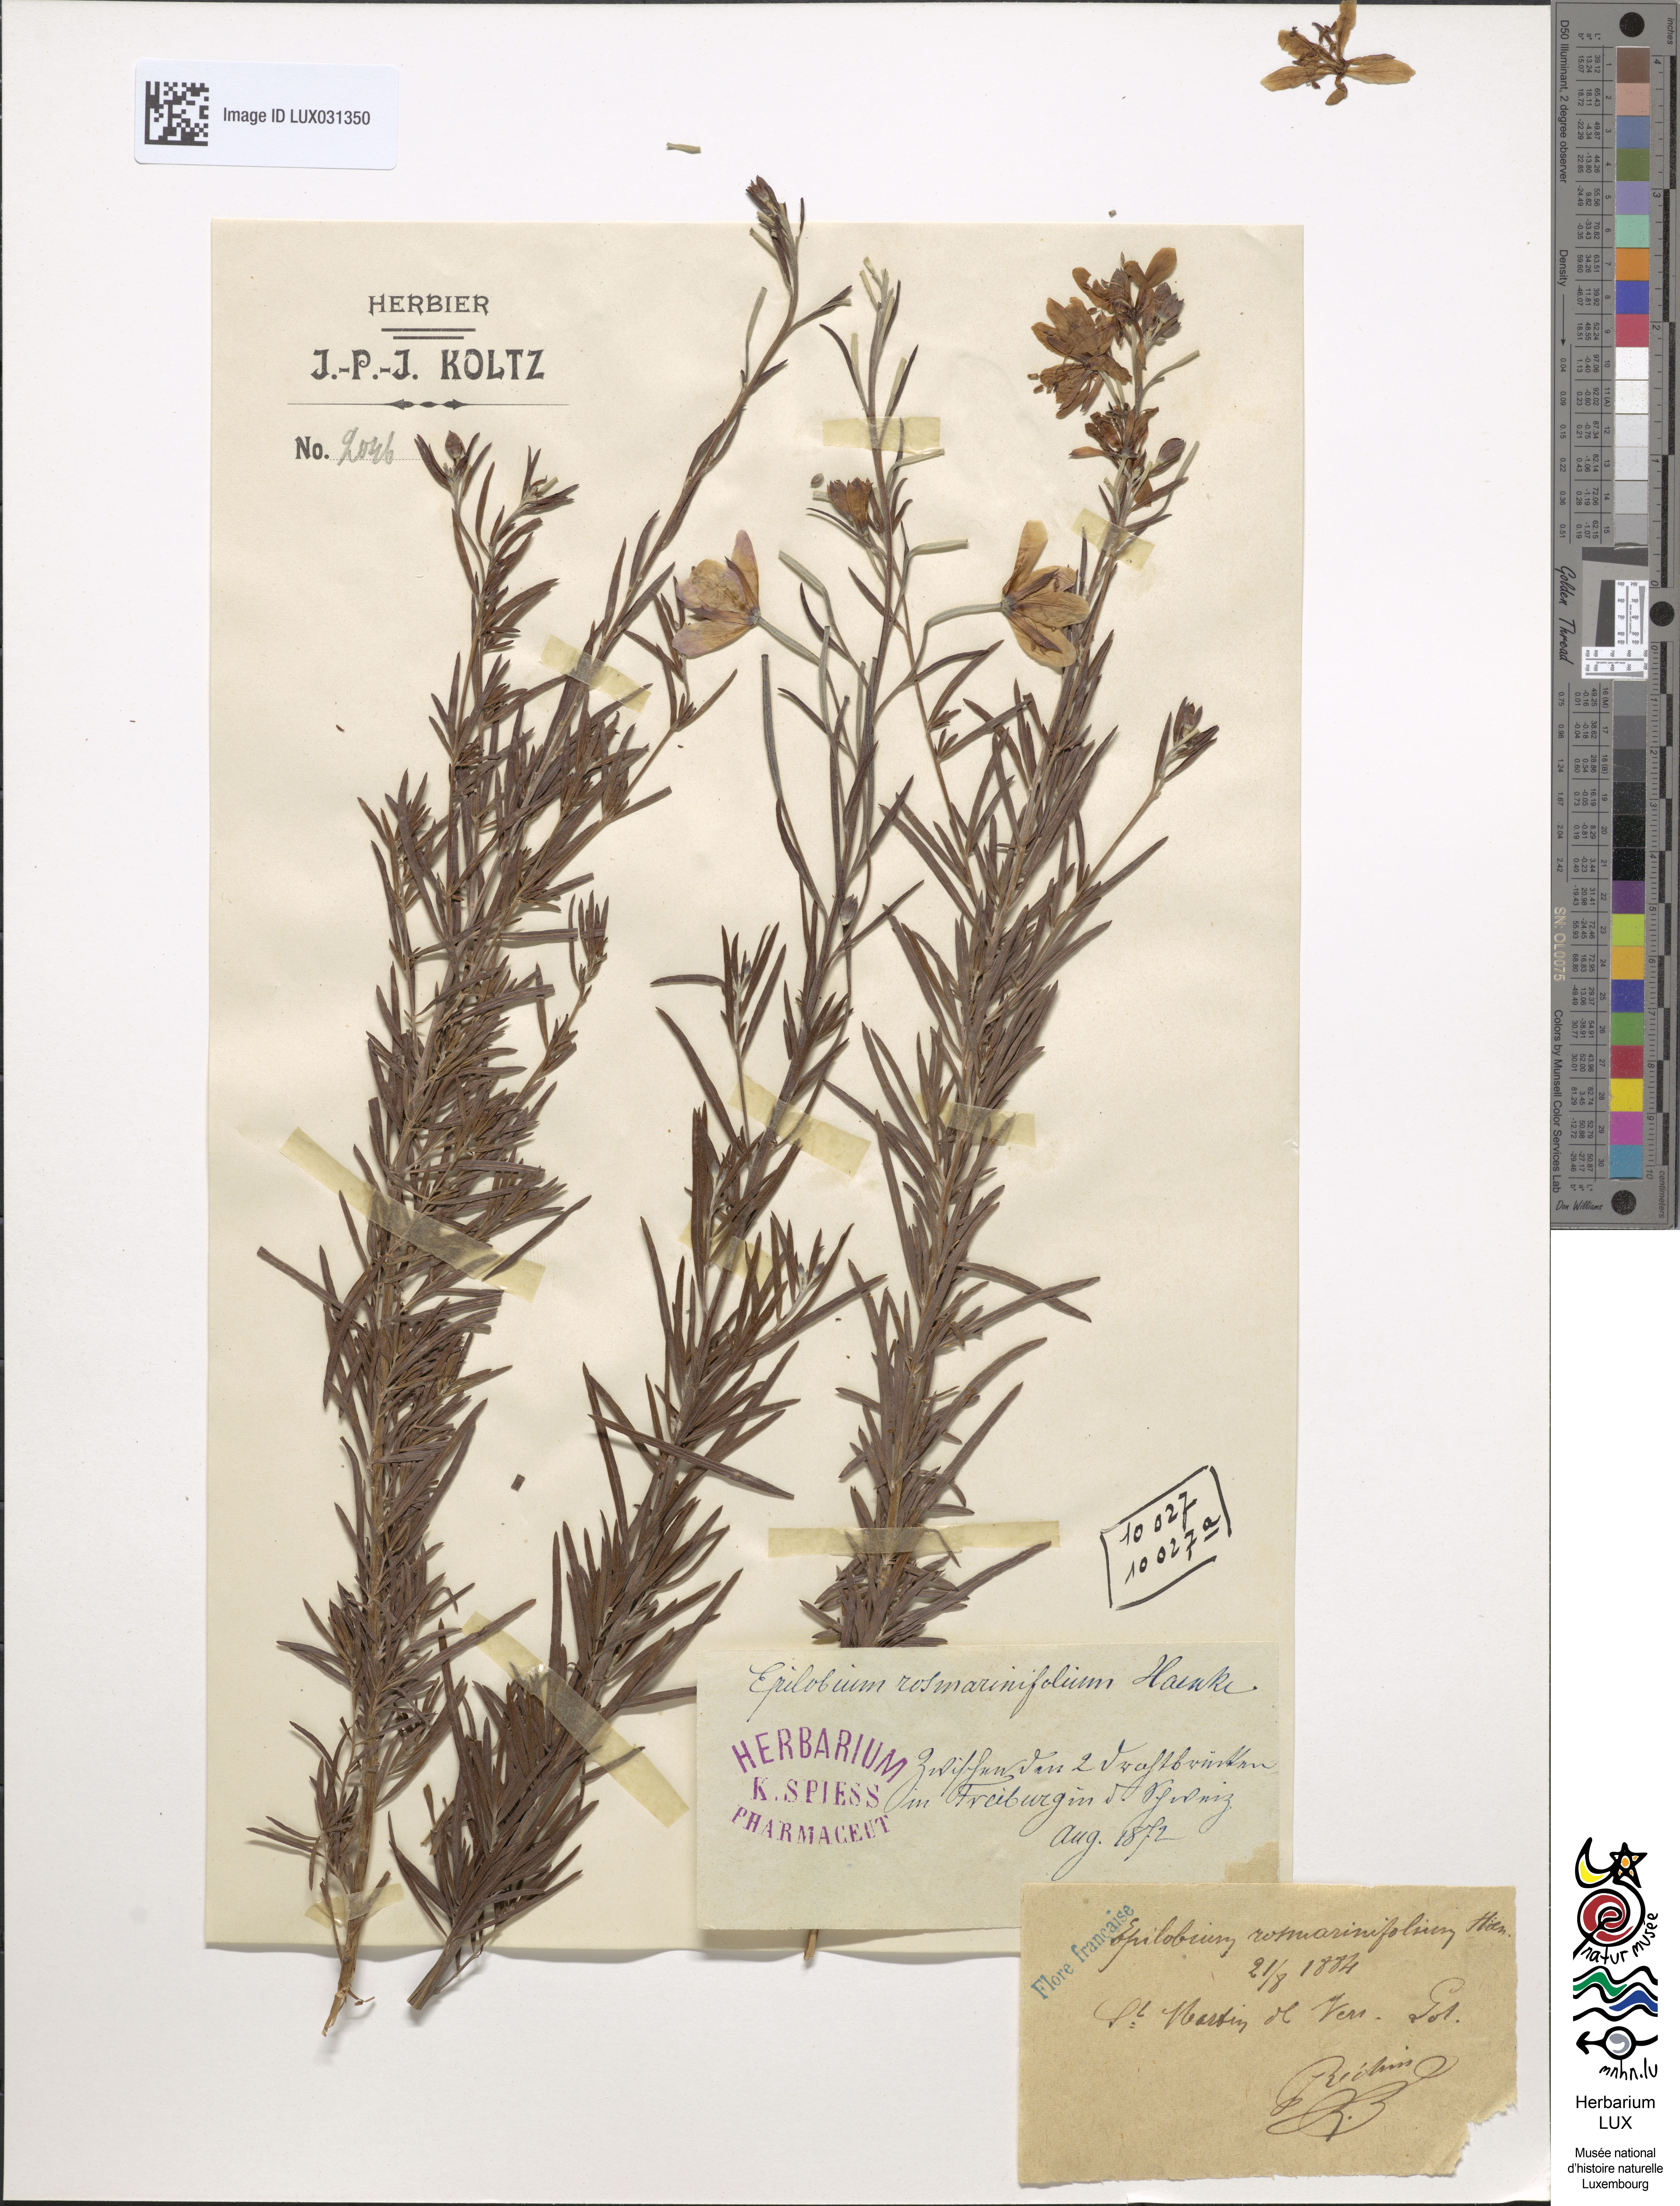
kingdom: Plantae
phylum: Tracheophyta
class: Magnoliopsida
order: Myrtales
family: Onagraceae
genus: Chamaenerion
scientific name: Chamaenerion dodonaei
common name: Rosemary-leaved willowherb
